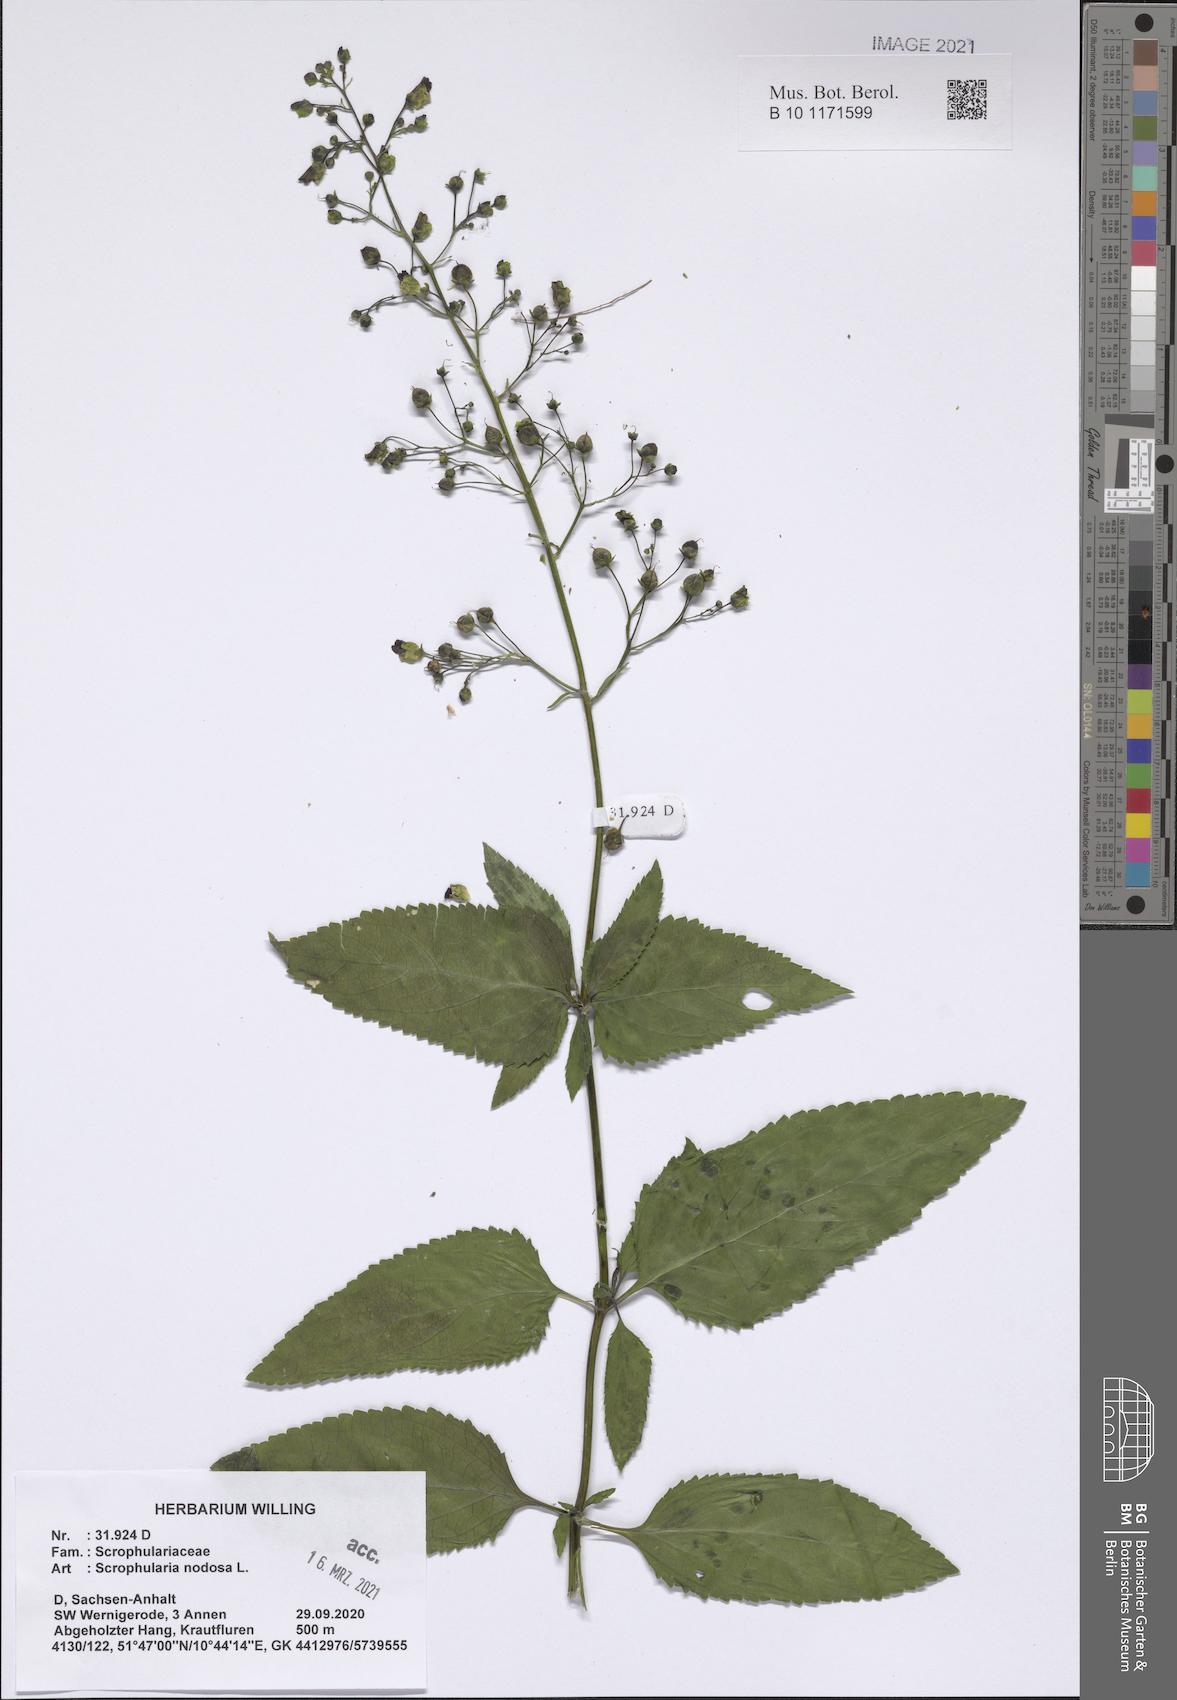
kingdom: Plantae
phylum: Tracheophyta
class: Magnoliopsida
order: Lamiales
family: Scrophulariaceae
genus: Scrophularia
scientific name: Scrophularia nodosa
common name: Common figwort
